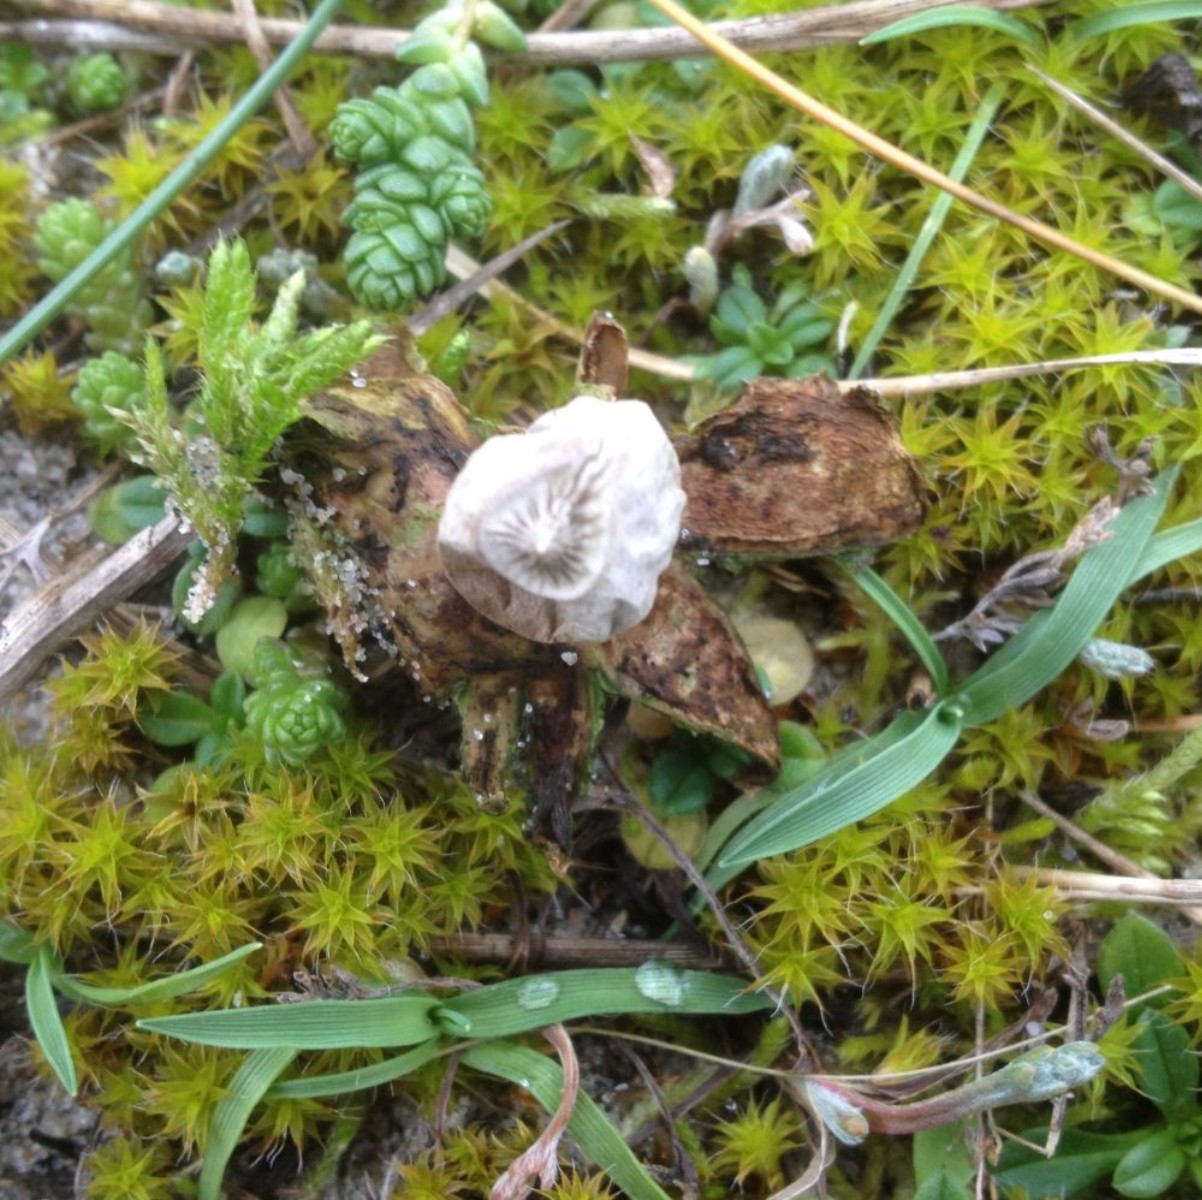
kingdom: Fungi
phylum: Basidiomycota
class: Agaricomycetes
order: Geastrales
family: Geastraceae
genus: Geastrum
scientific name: Geastrum striatum
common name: dværg-stjernebold
